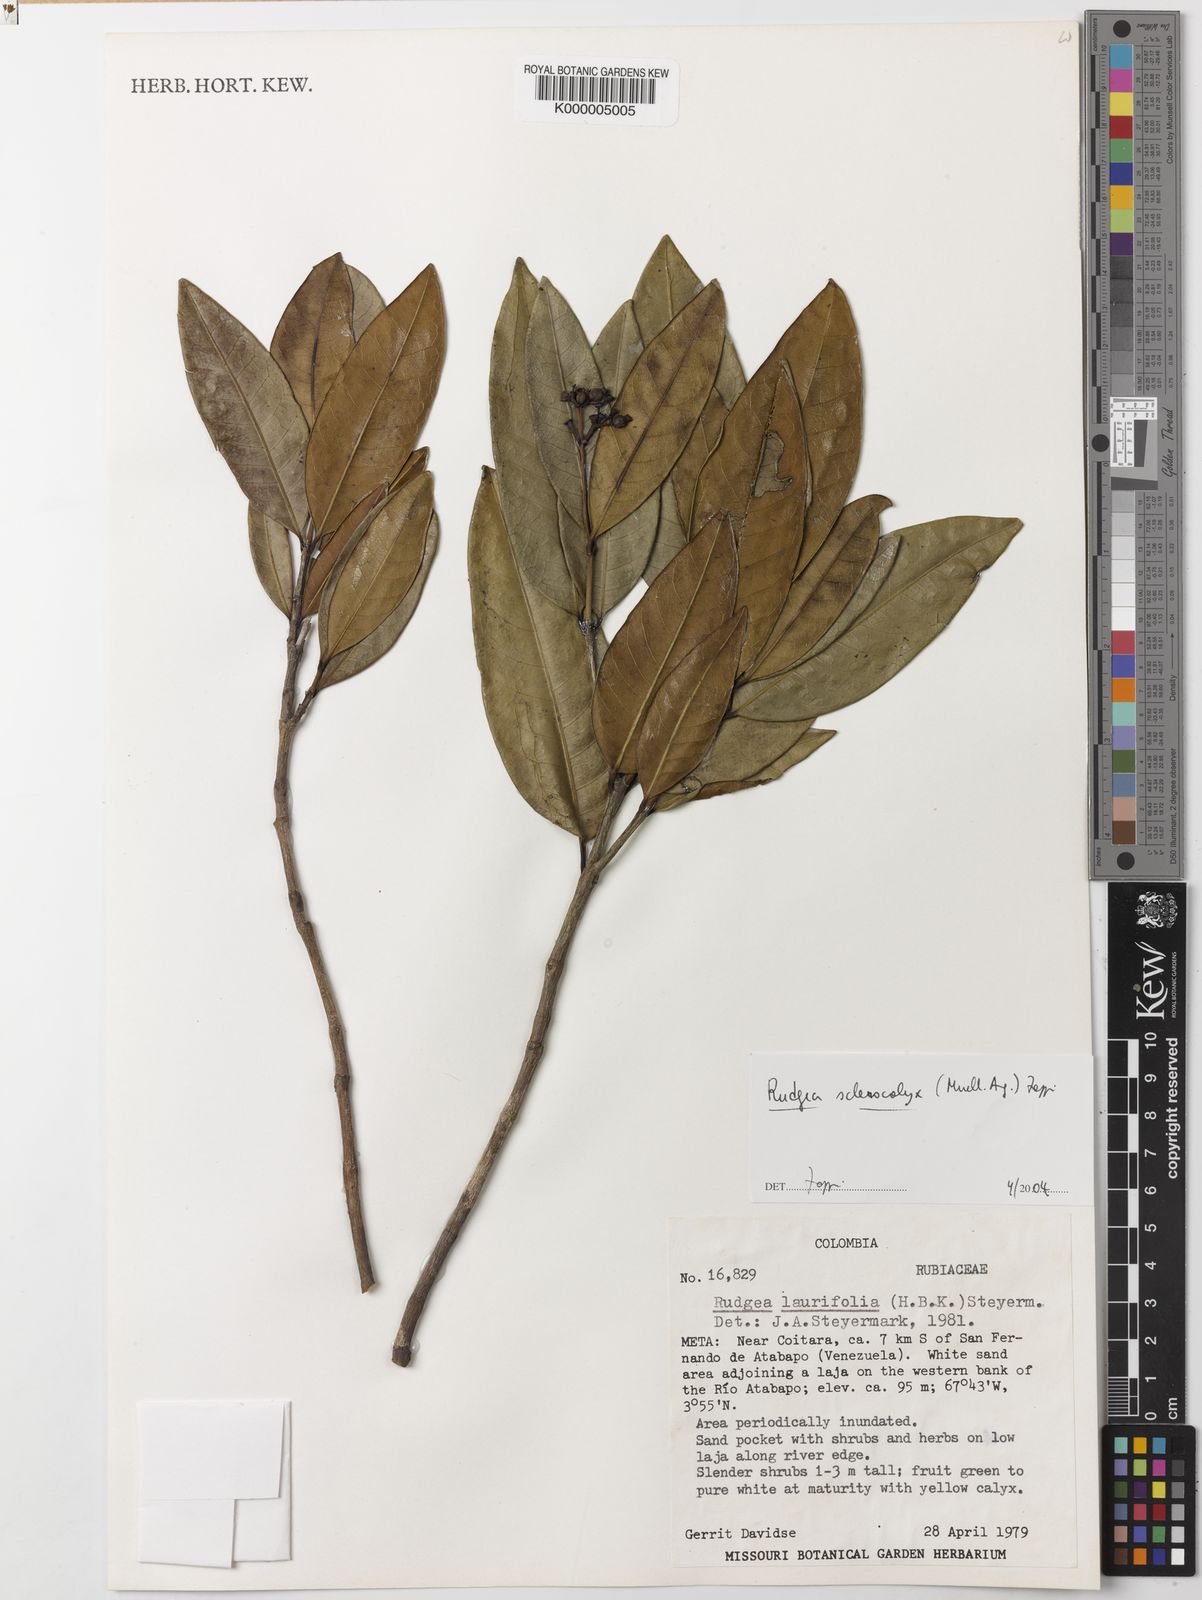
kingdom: Plantae
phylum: Tracheophyta
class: Magnoliopsida
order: Gentianales
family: Rubiaceae
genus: Rudgea
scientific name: Rudgea sclerocalyx
